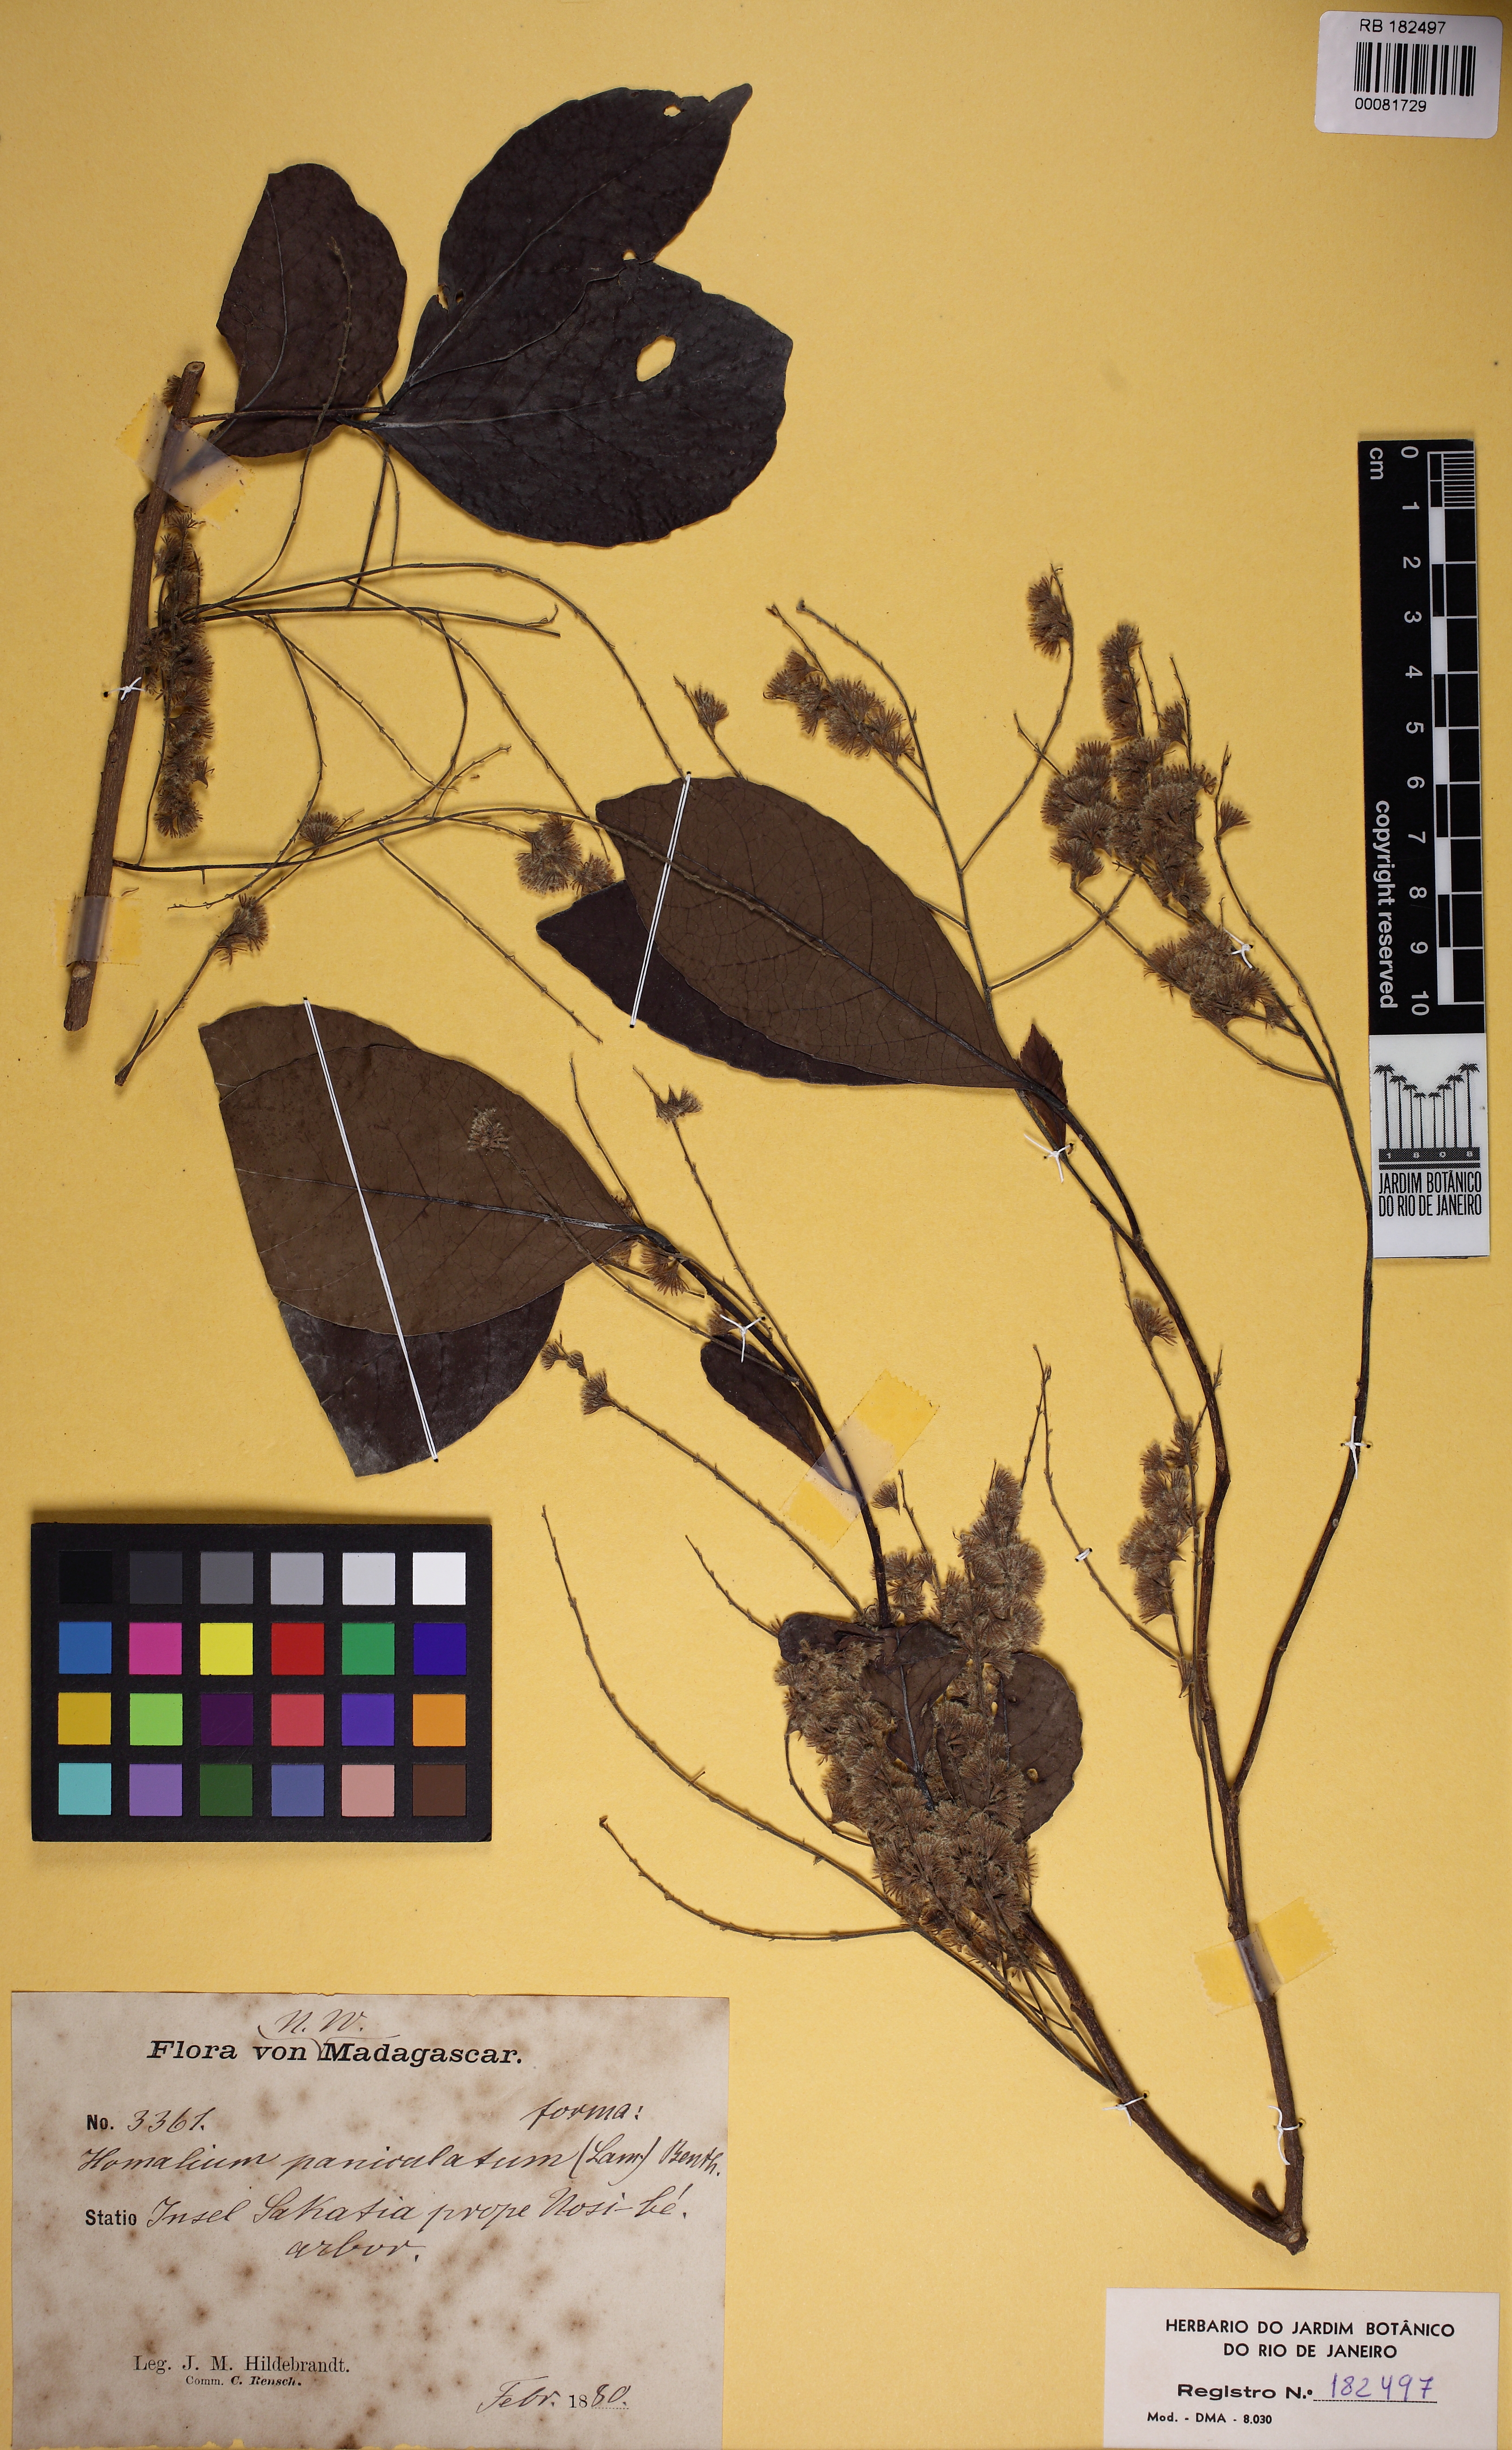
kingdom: Plantae
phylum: Tracheophyta
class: Magnoliopsida
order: Malpighiales
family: Salicaceae
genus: Homalium
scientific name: Homalium erianthum
